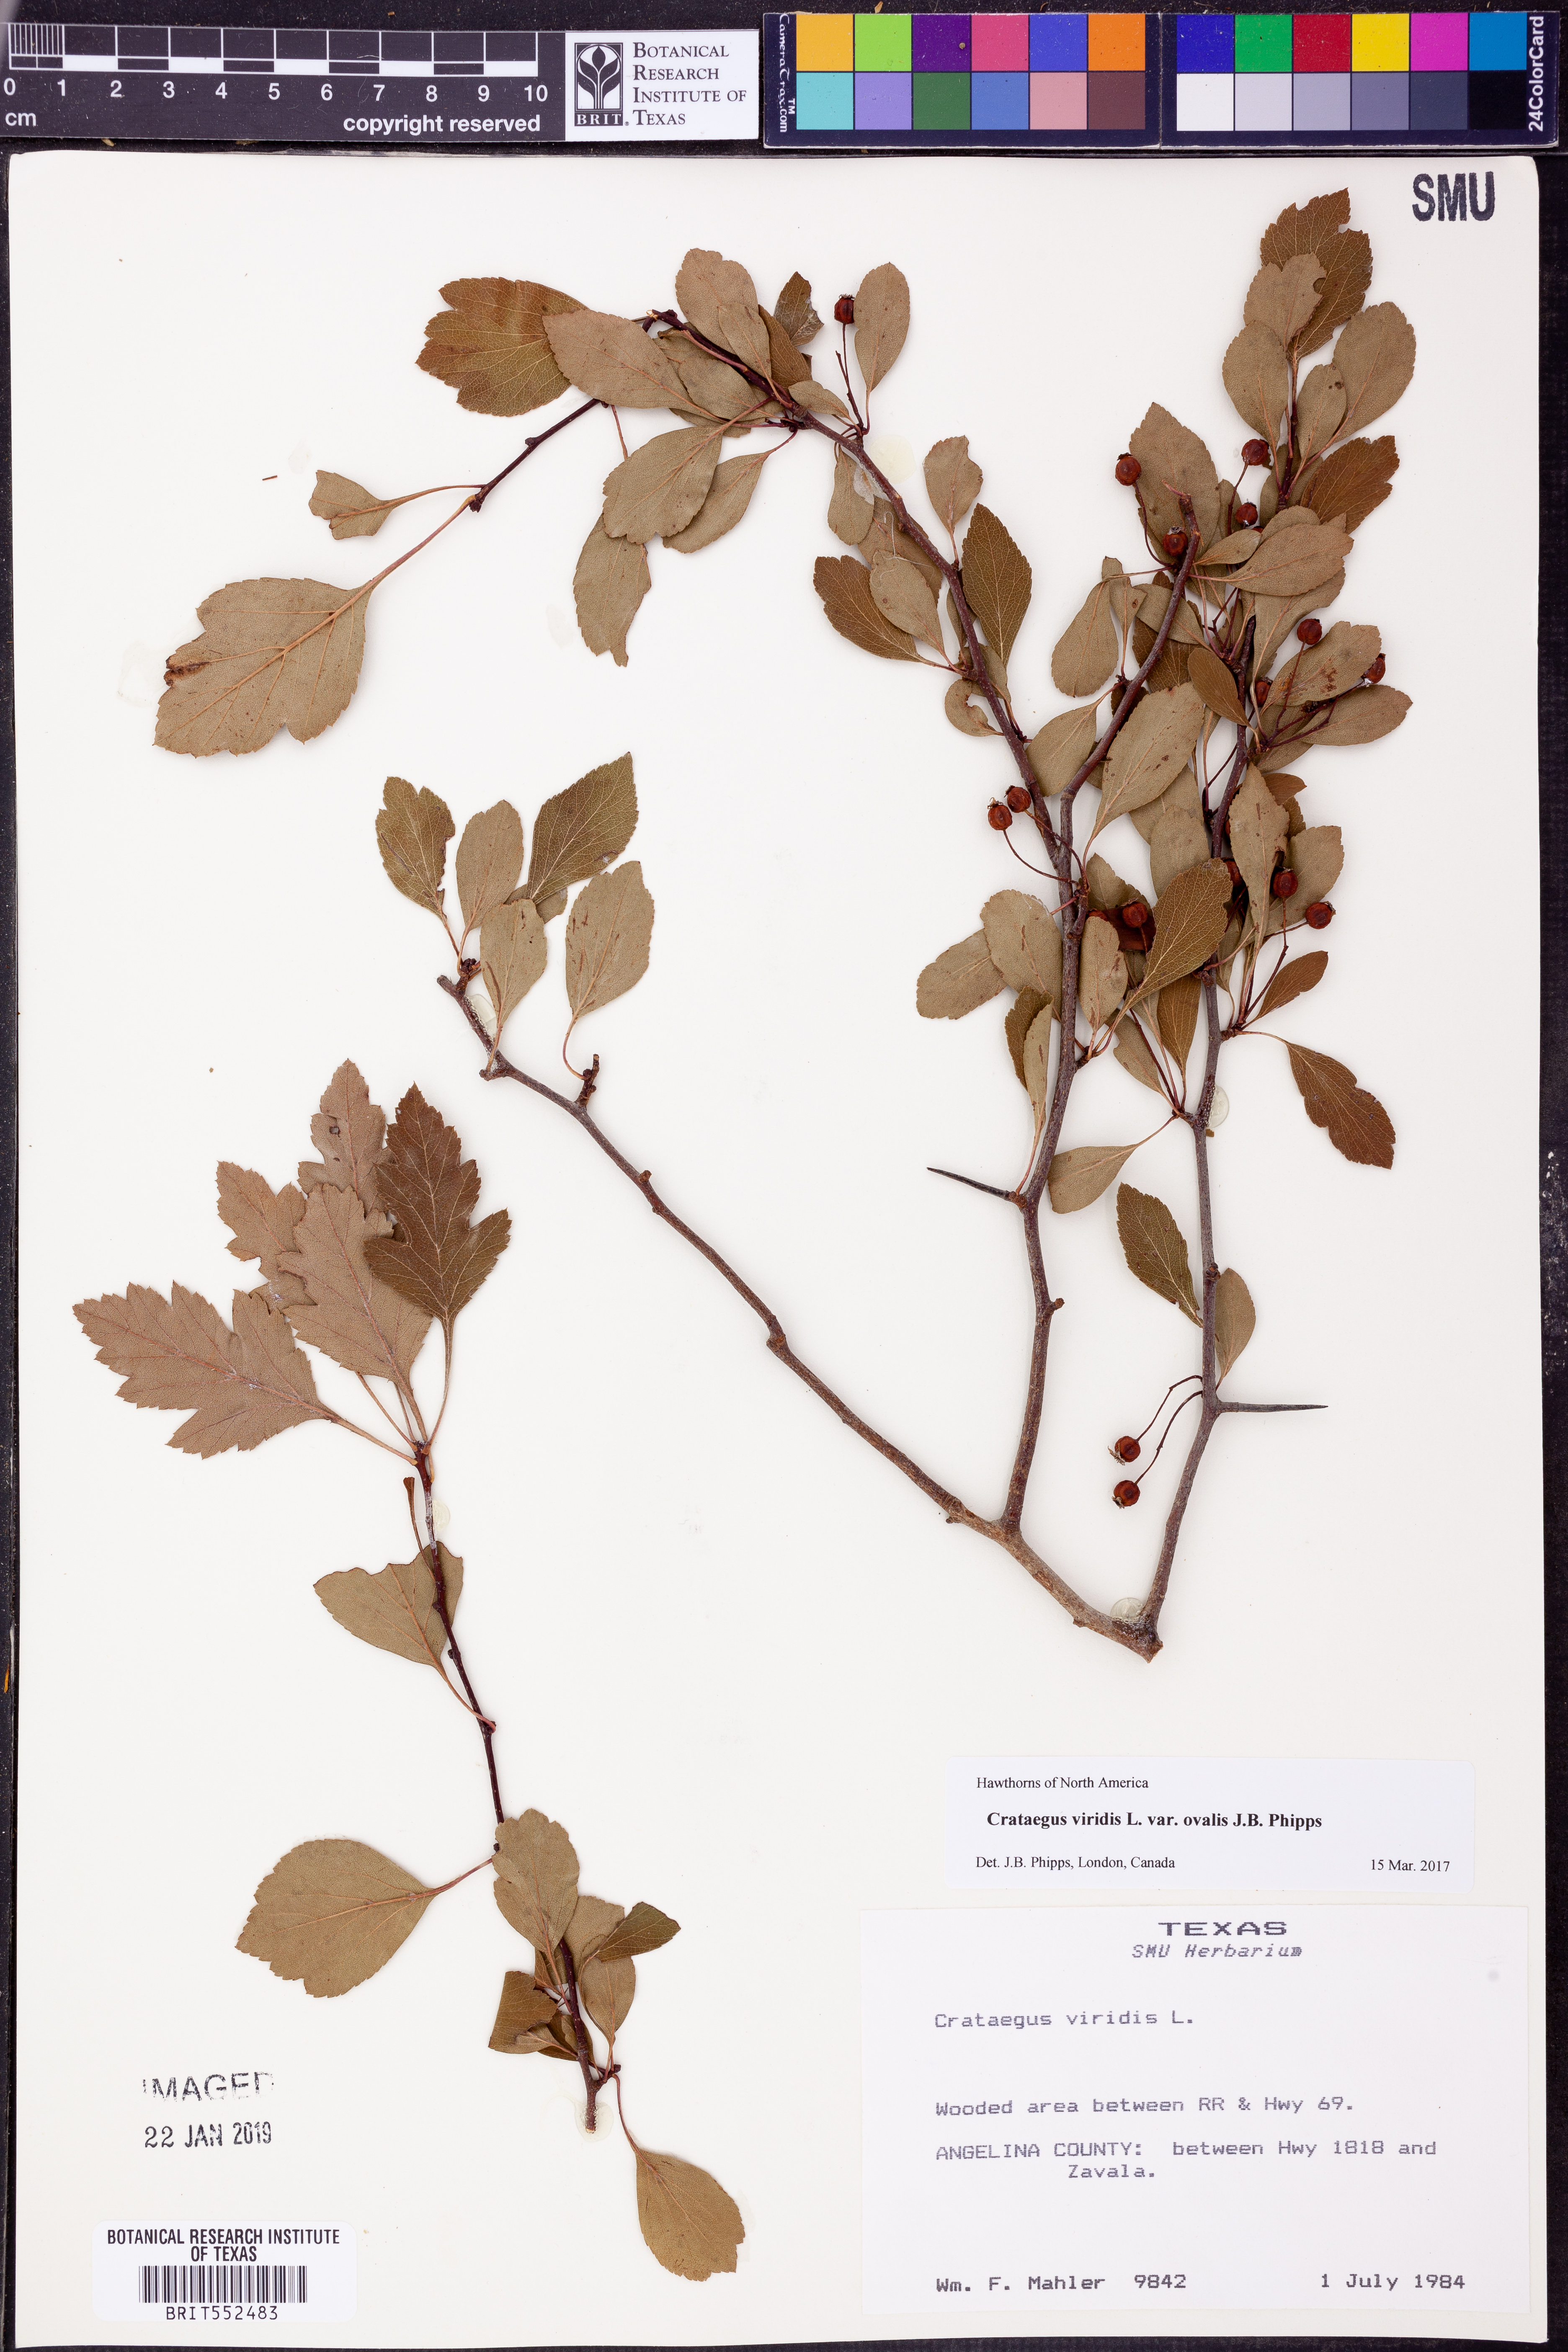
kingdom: Plantae
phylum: Tracheophyta
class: Magnoliopsida
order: Rosales
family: Rosaceae
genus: Crataegus
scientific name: Crataegus viridis
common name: Southernthorn
